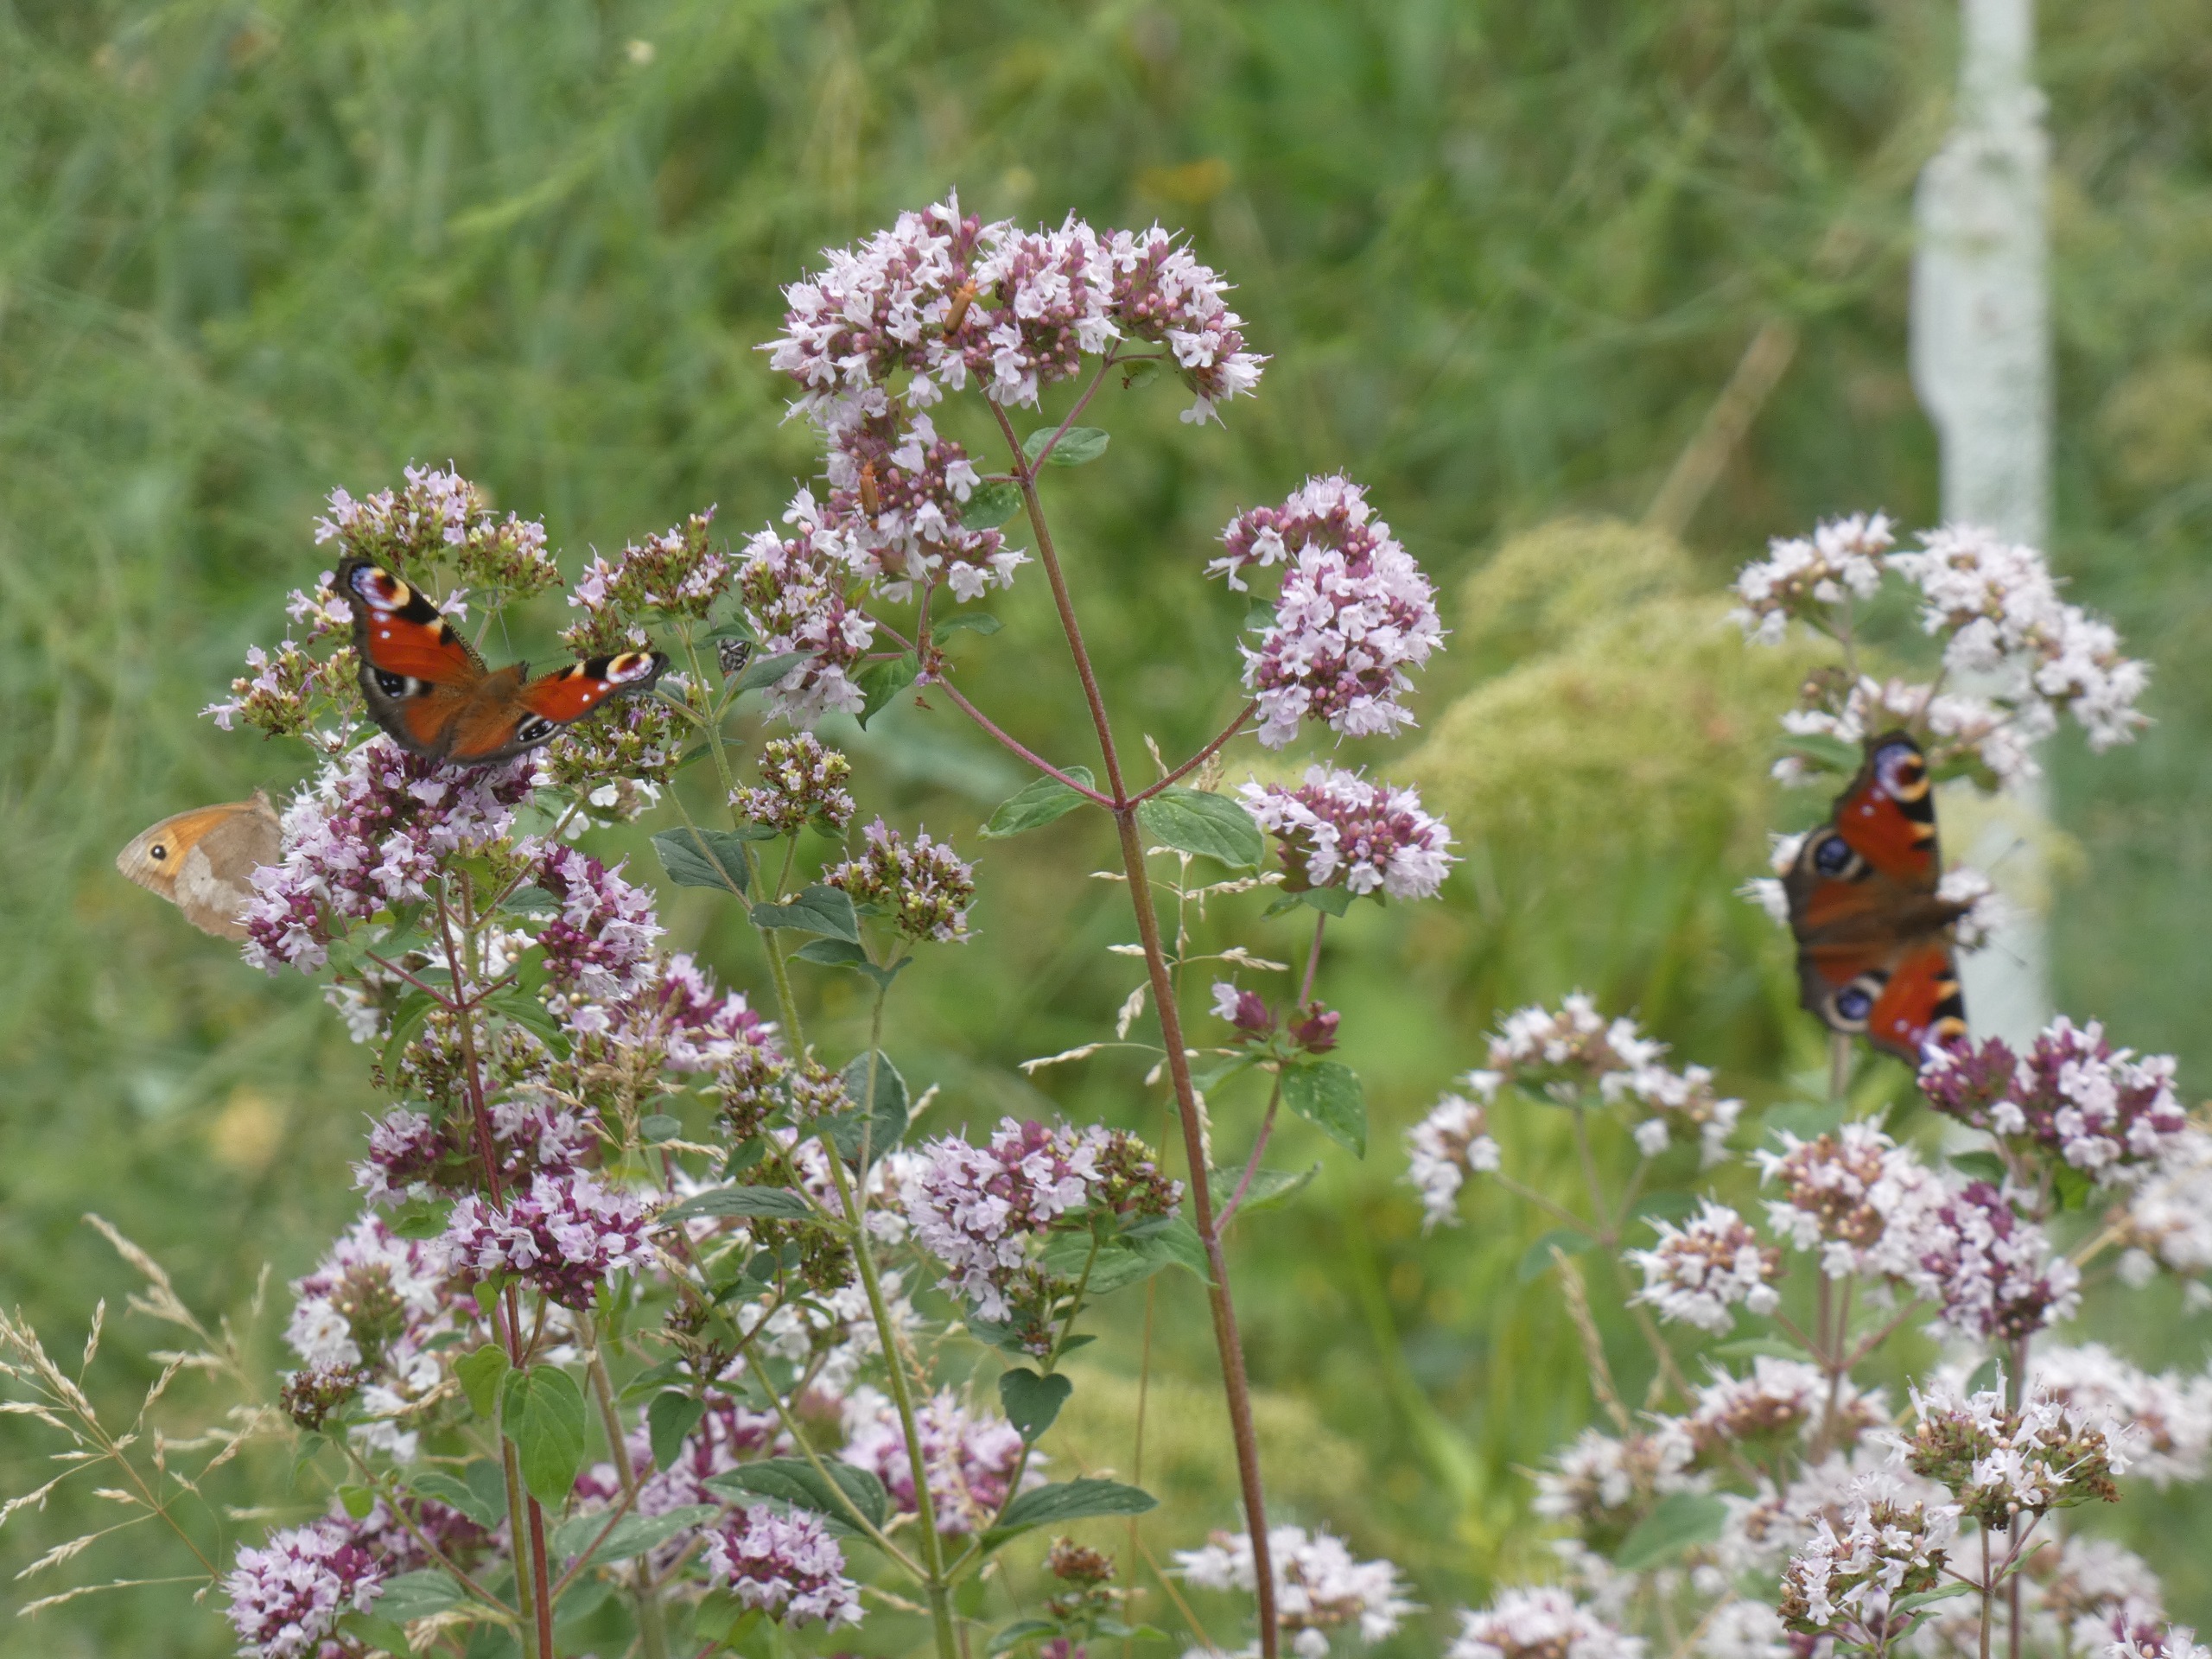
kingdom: Animalia
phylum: Arthropoda
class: Insecta
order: Lepidoptera
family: Nymphalidae
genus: Aglais
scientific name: Aglais io
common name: Dagpåfugleøje
